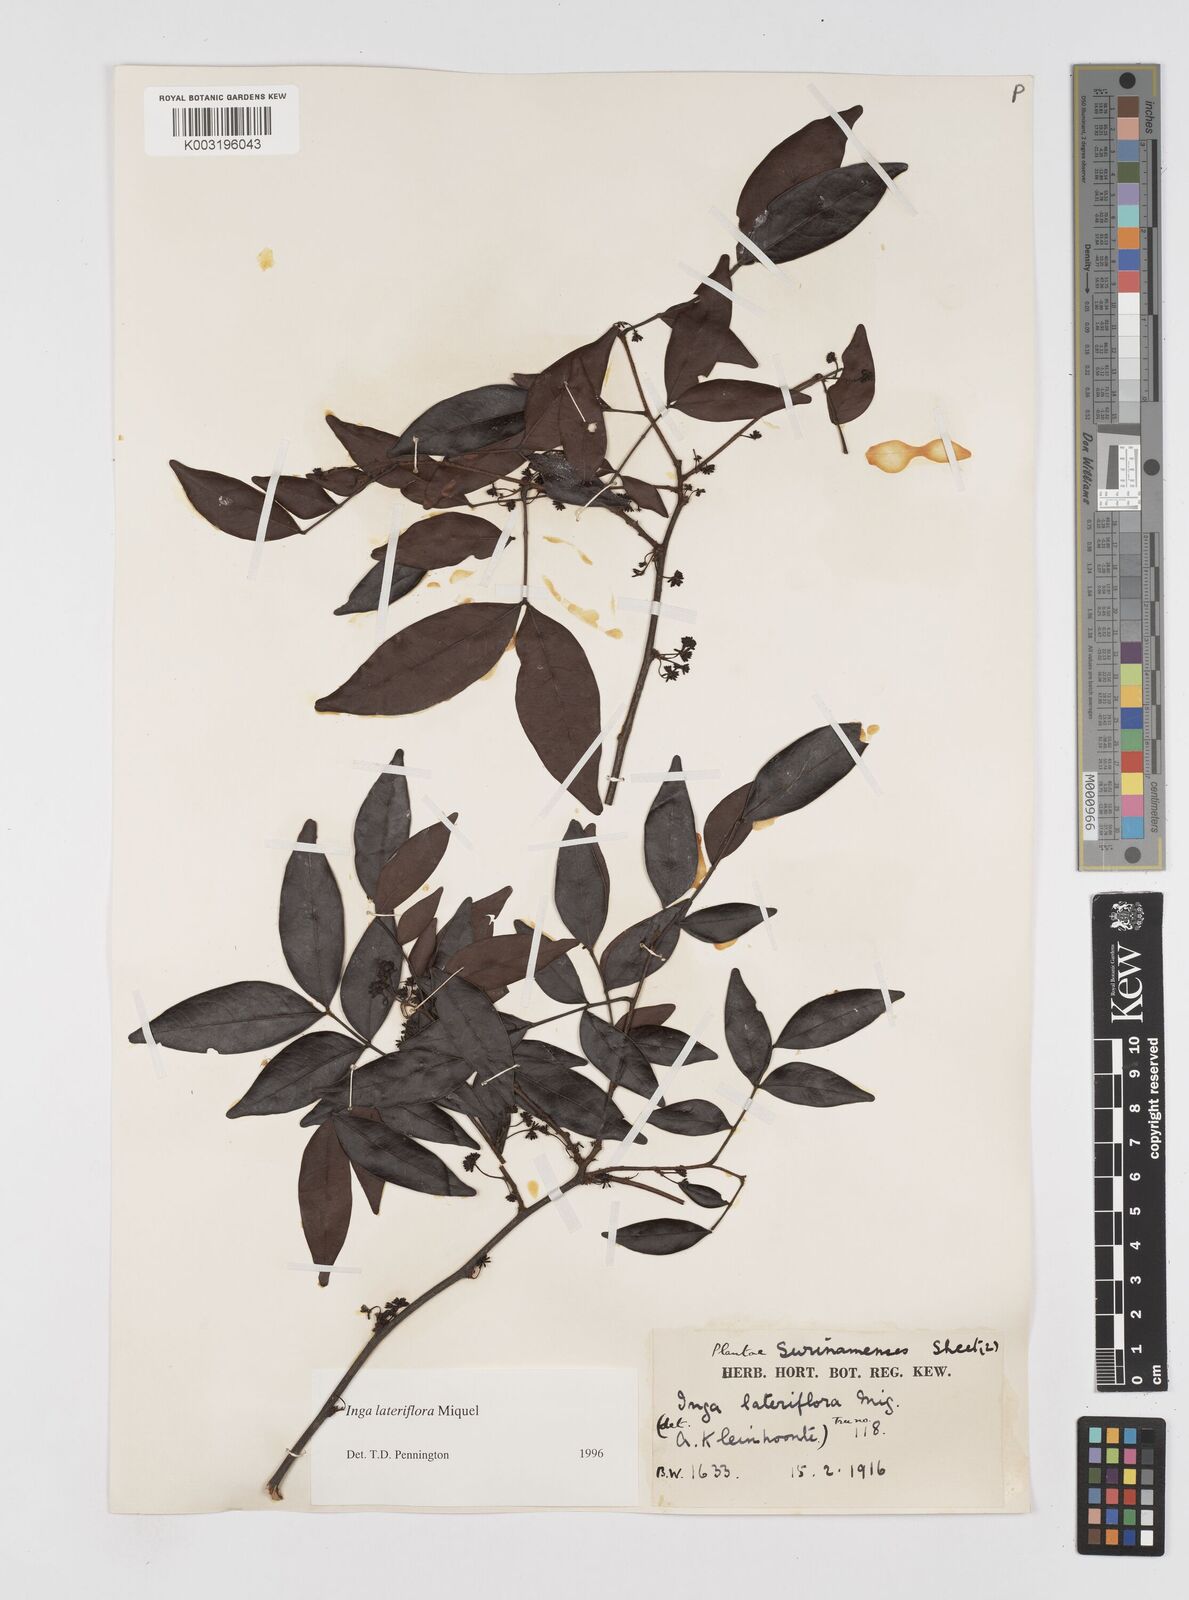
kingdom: Plantae
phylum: Tracheophyta
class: Magnoliopsida
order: Fabales
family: Fabaceae
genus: Inga
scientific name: Inga lateriflora
